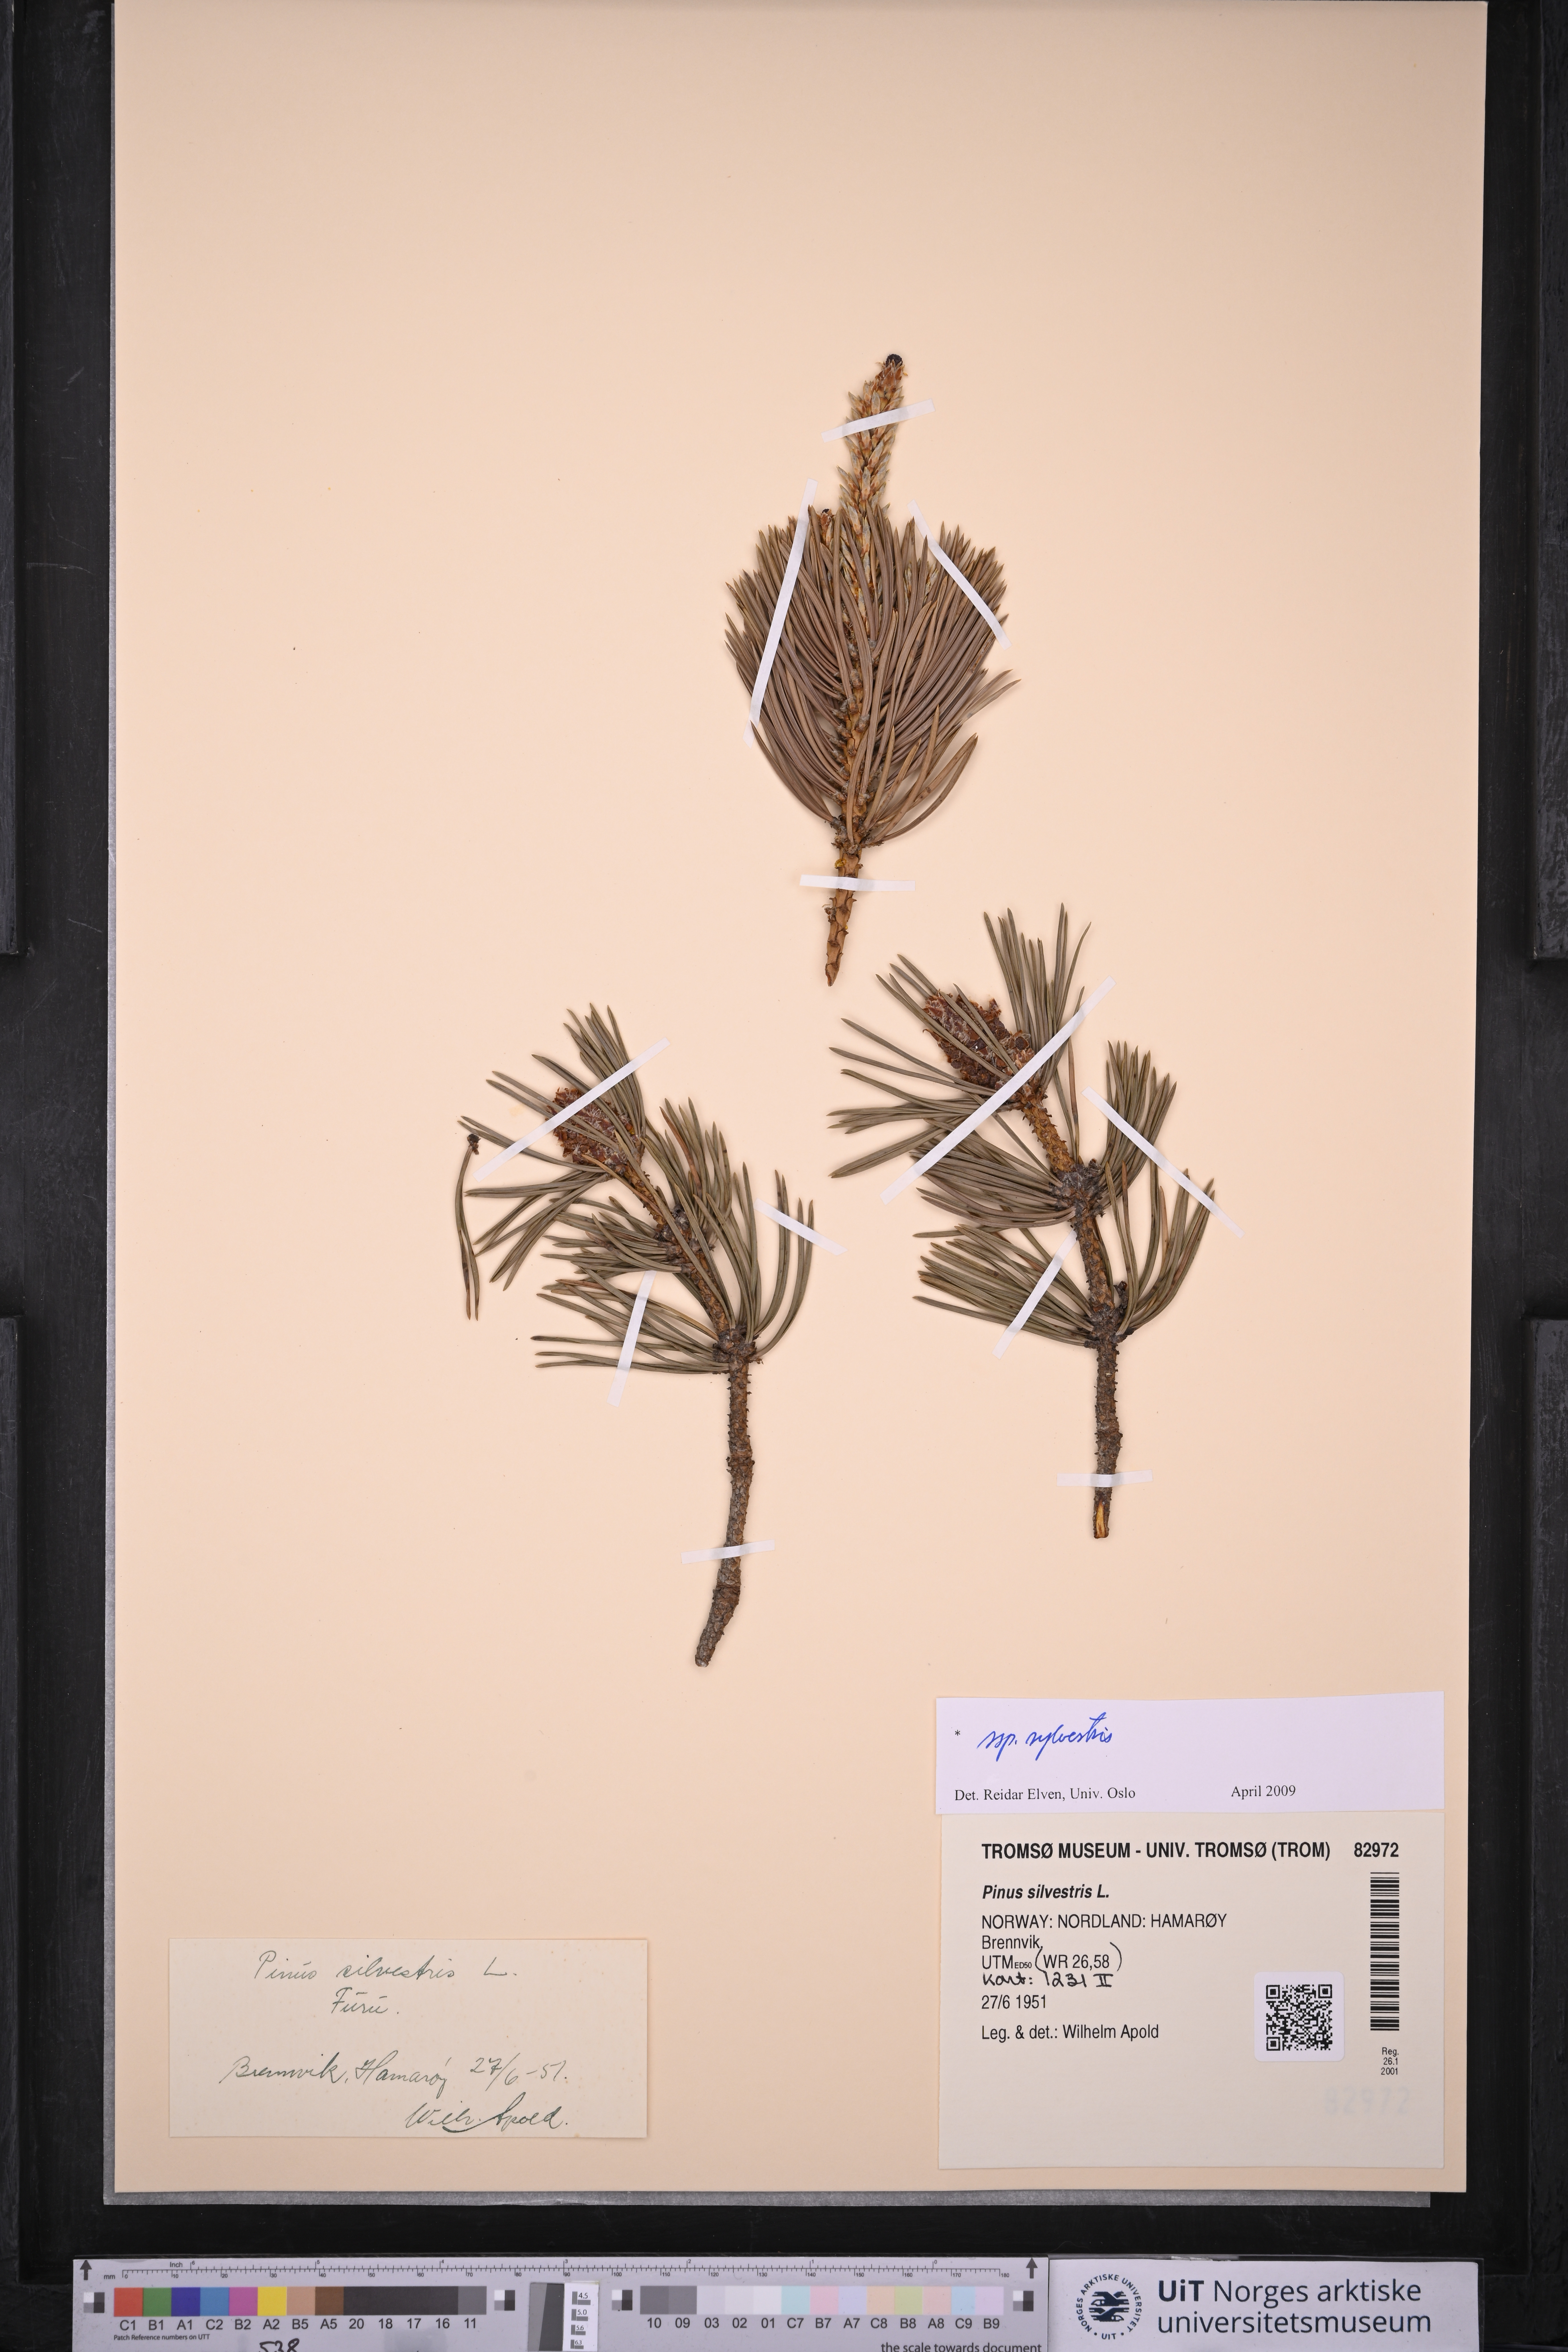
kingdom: Plantae
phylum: Tracheophyta
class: Pinopsida
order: Pinales
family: Pinaceae
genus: Pinus
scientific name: Pinus sylvestris
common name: Scots pine
